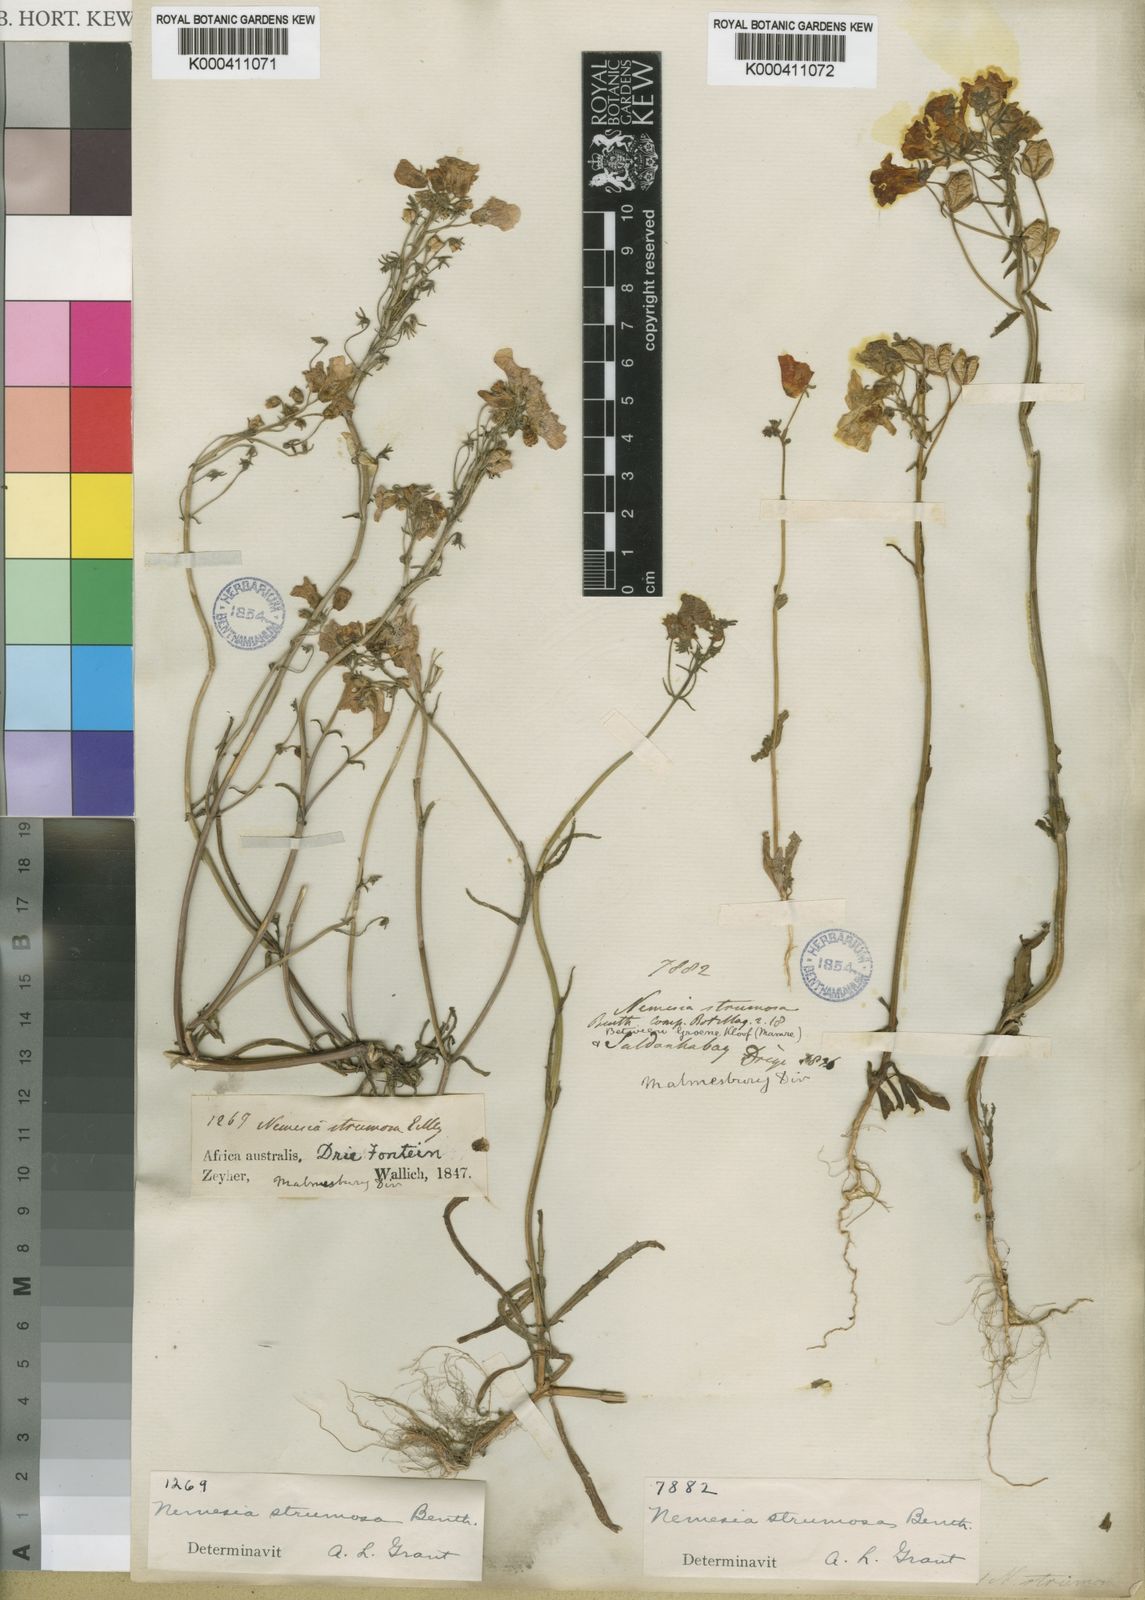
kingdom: Plantae
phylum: Tracheophyta
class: Magnoliopsida
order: Lamiales
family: Scrophulariaceae
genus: Nemesia
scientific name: Nemesia strumosa
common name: Cape-jewels
